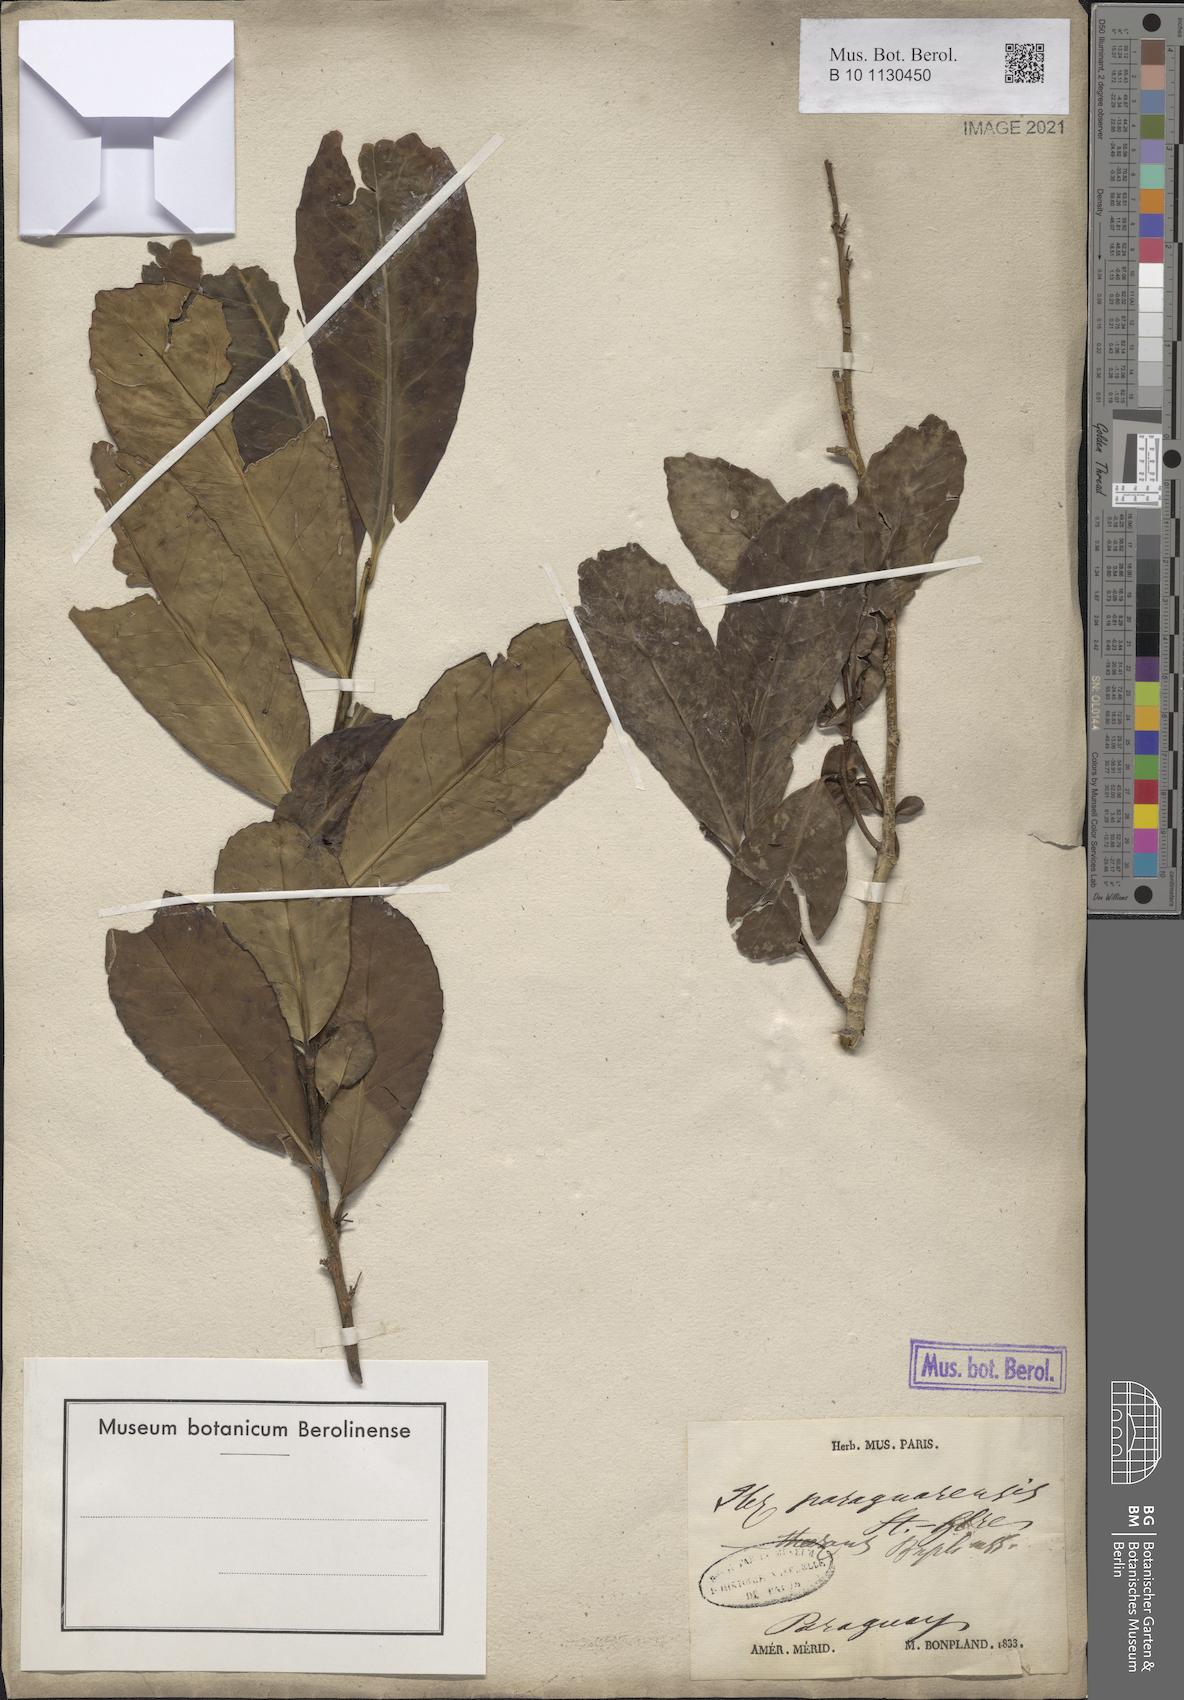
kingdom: Plantae
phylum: Tracheophyta
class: Magnoliopsida
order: Aquifoliales
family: Aquifoliaceae
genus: Ilex
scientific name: Ilex paraguariensis
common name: Paraguay tea
